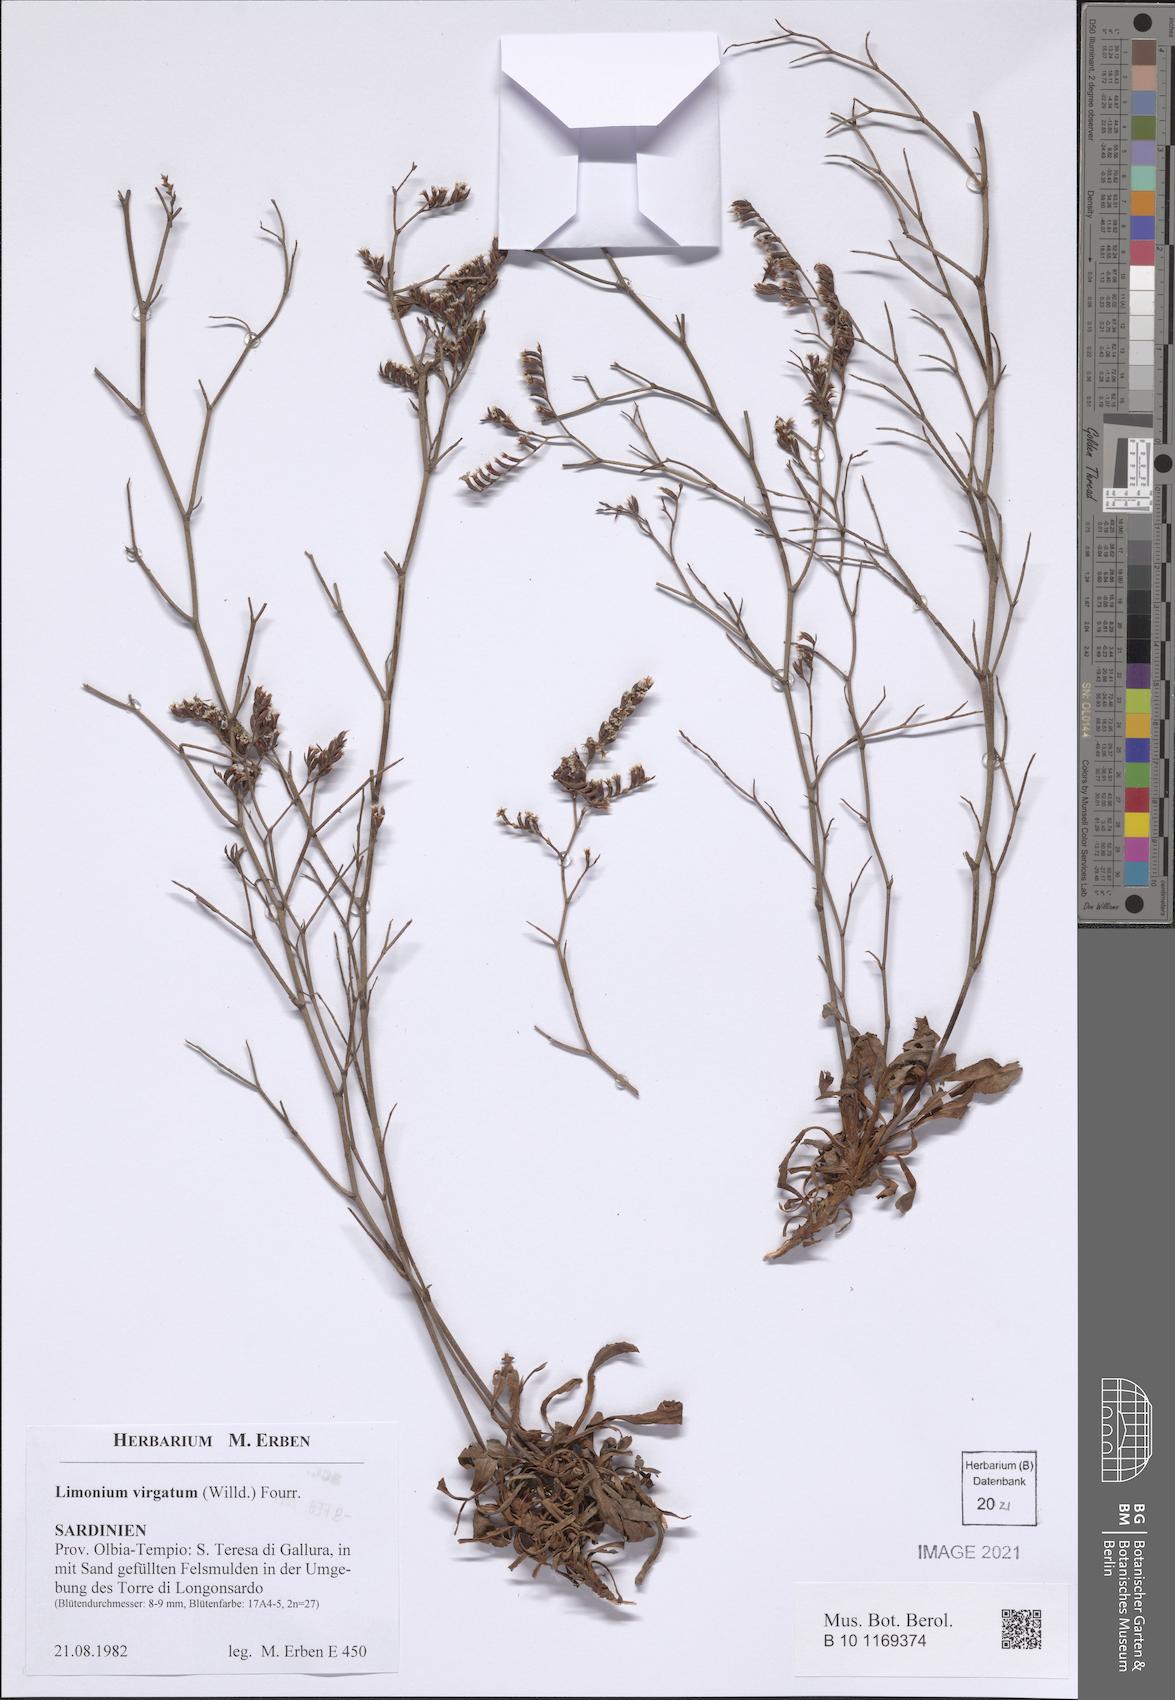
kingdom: Plantae
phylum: Tracheophyta
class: Magnoliopsida
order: Caryophyllales
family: Plumbaginaceae
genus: Limonium
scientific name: Limonium virgatum
